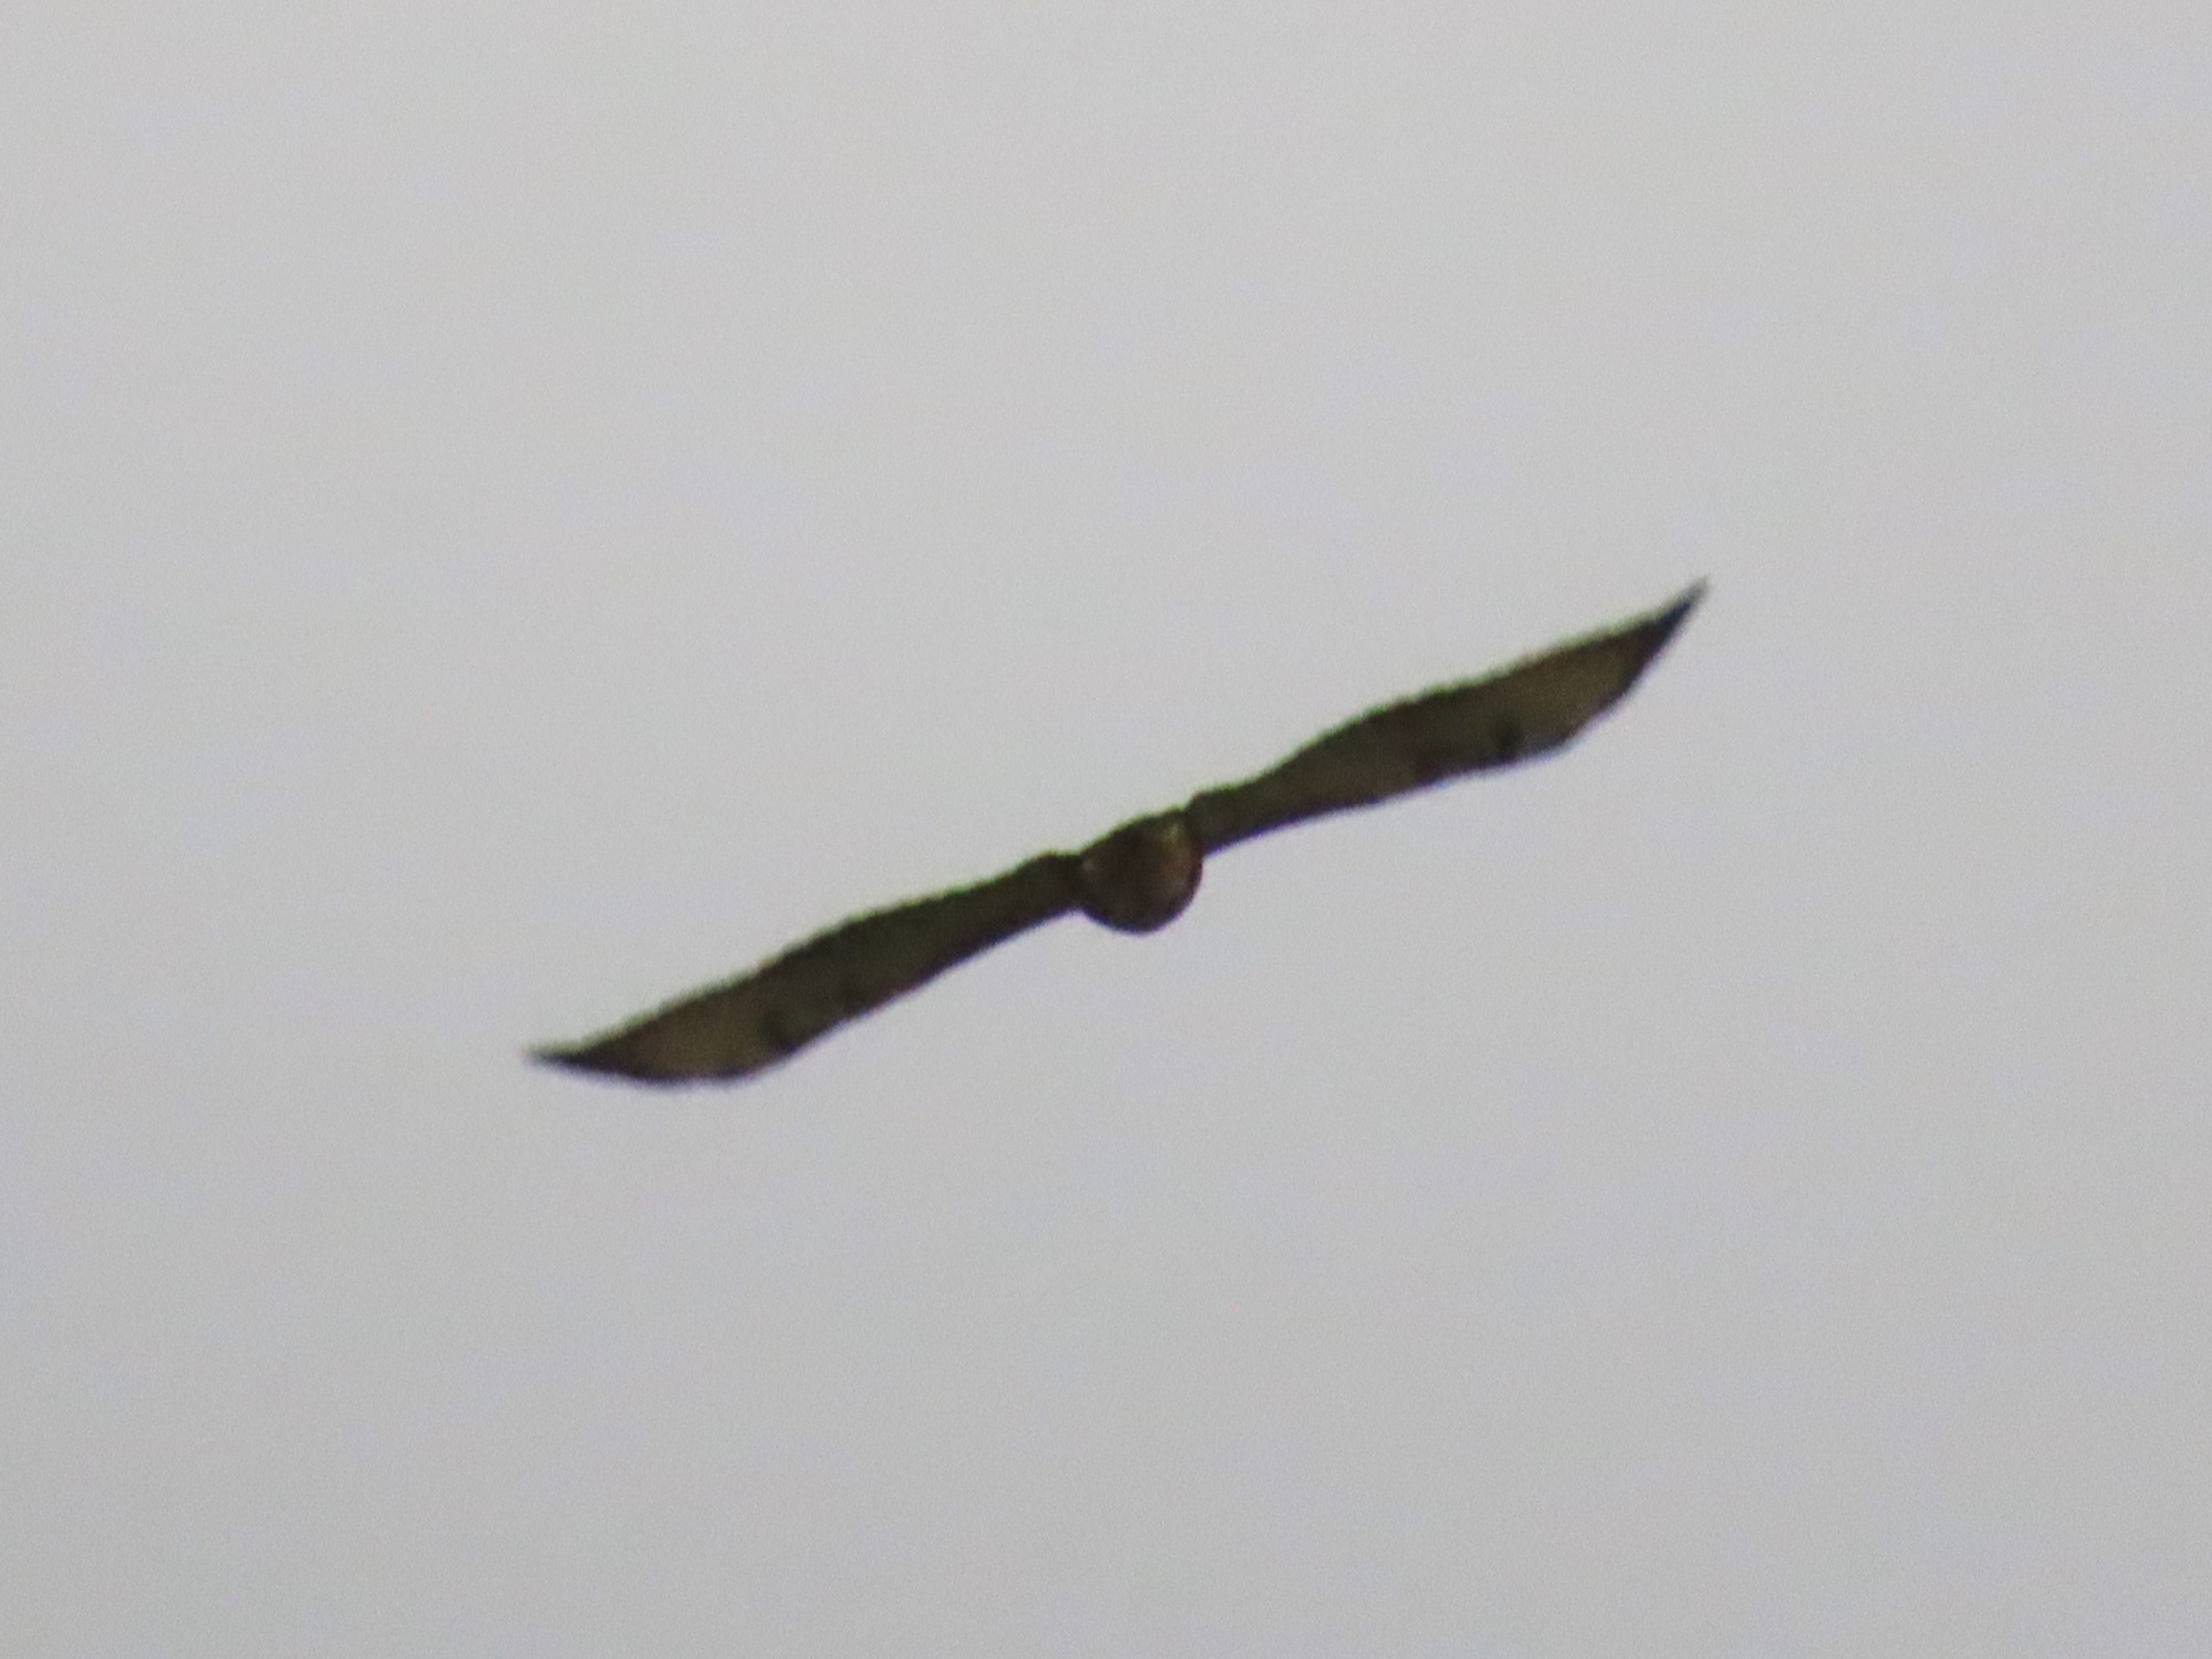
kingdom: Animalia
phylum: Chordata
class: Aves
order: Accipitriformes
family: Accipitridae
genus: Buteo
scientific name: Buteo buteo
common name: Musvåge
